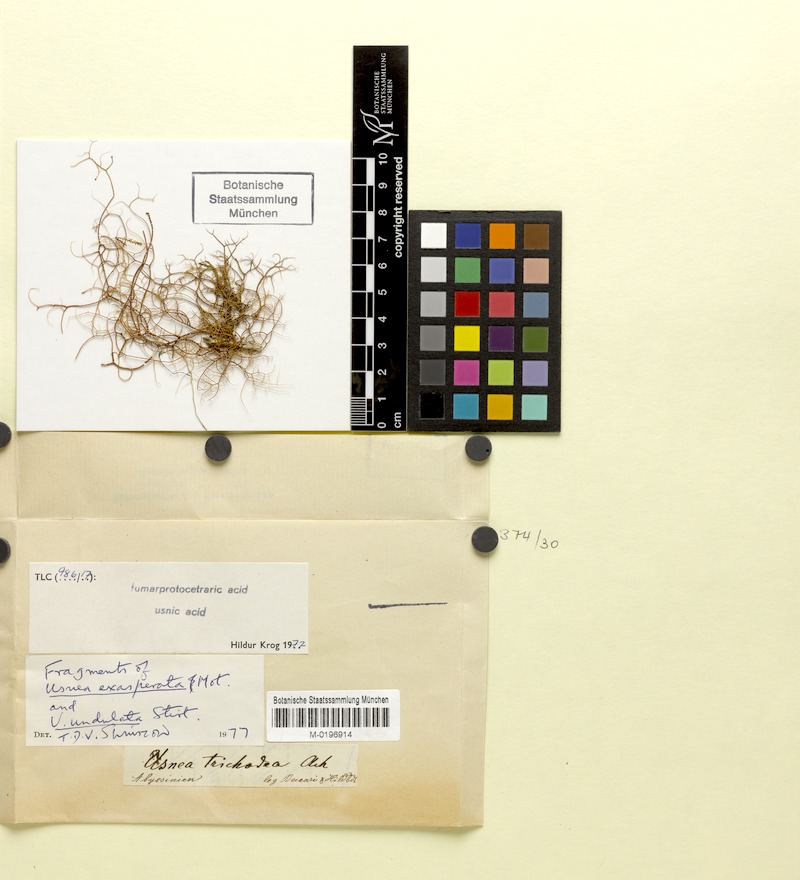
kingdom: Fungi
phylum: Ascomycota
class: Lecanoromycetes
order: Lecanorales
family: Parmeliaceae
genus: Xanthoparmelia
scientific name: Xanthoparmelia amplexula
